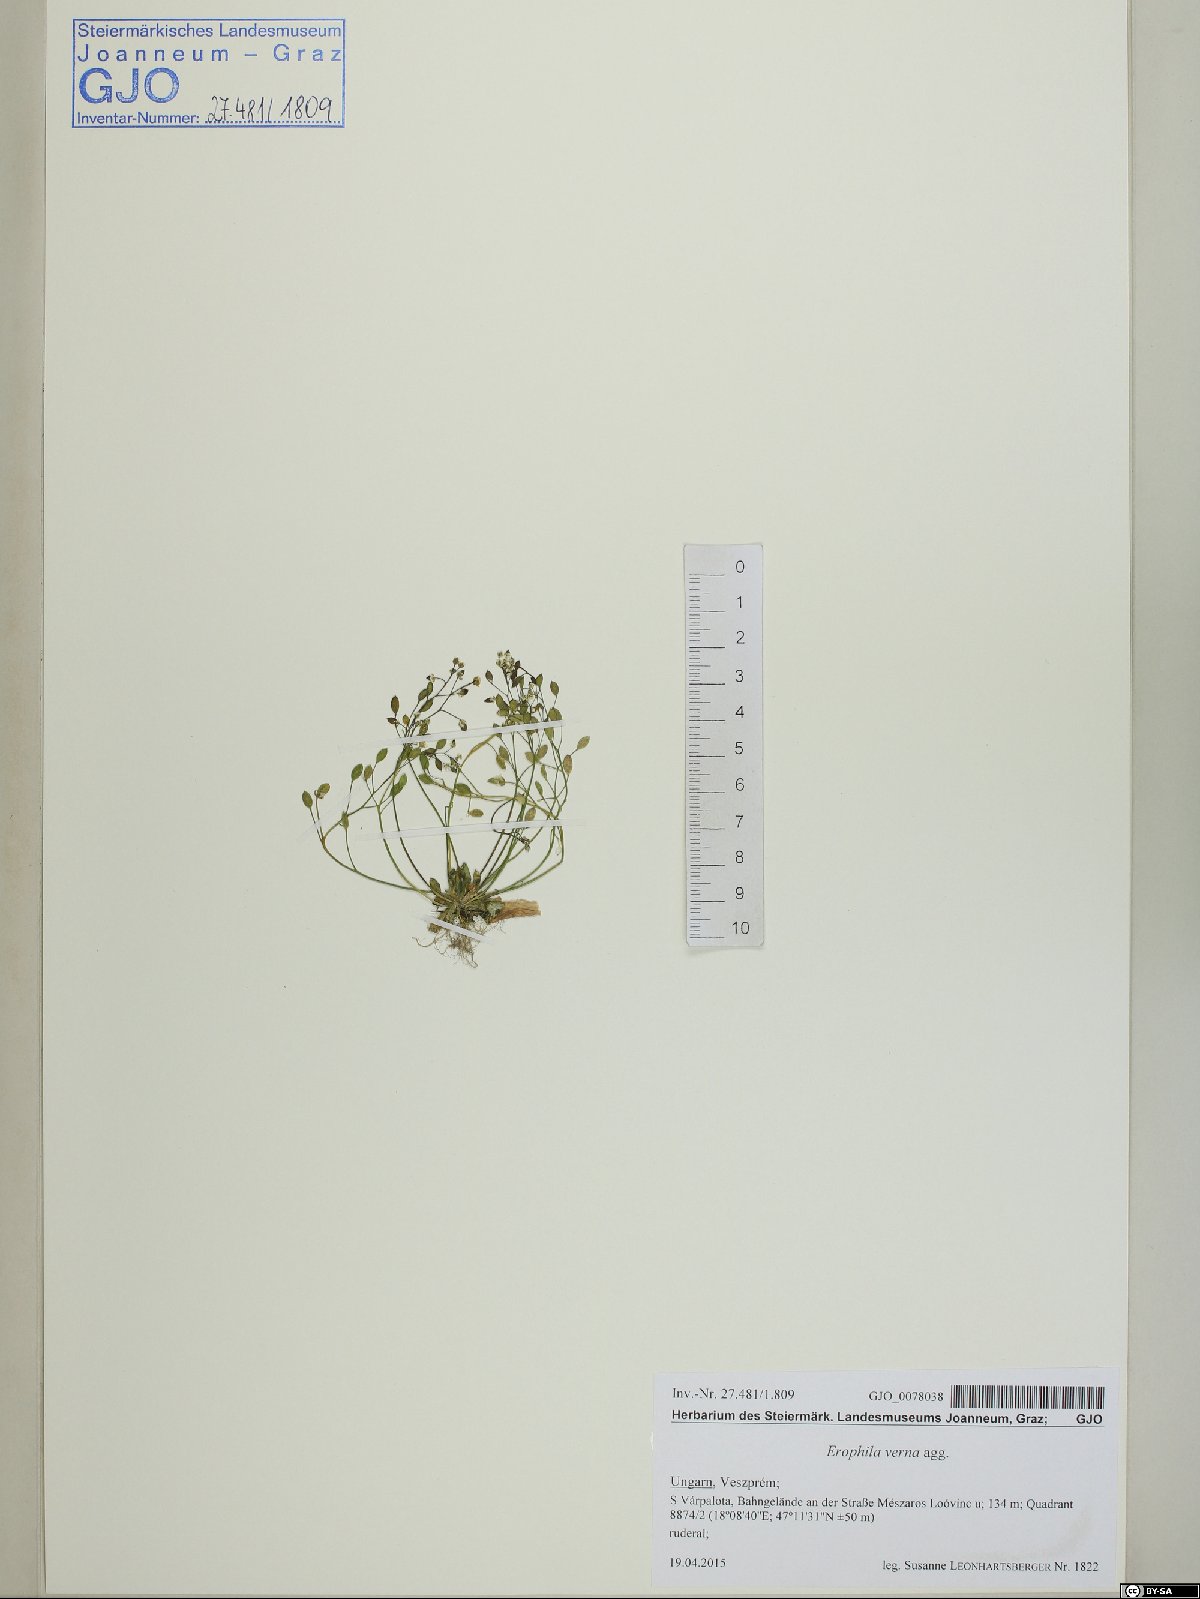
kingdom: Plantae
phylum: Tracheophyta
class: Magnoliopsida
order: Brassicales
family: Brassicaceae
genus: Draba
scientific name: Draba verna
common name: Spring draba
